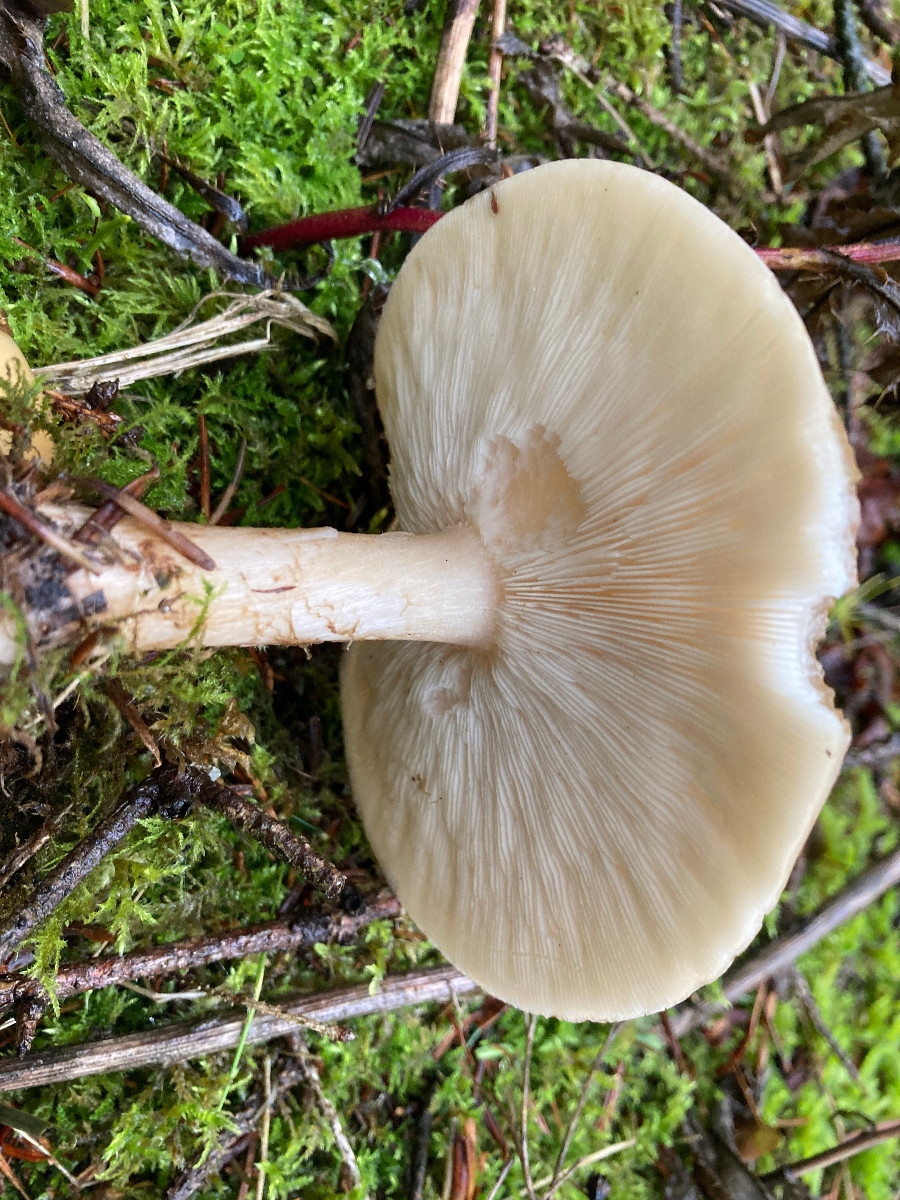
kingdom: Fungi
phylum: Basidiomycota
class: Agaricomycetes
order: Agaricales
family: Tricholomataceae
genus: Melanoleuca
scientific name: Melanoleuca
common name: munkehat
